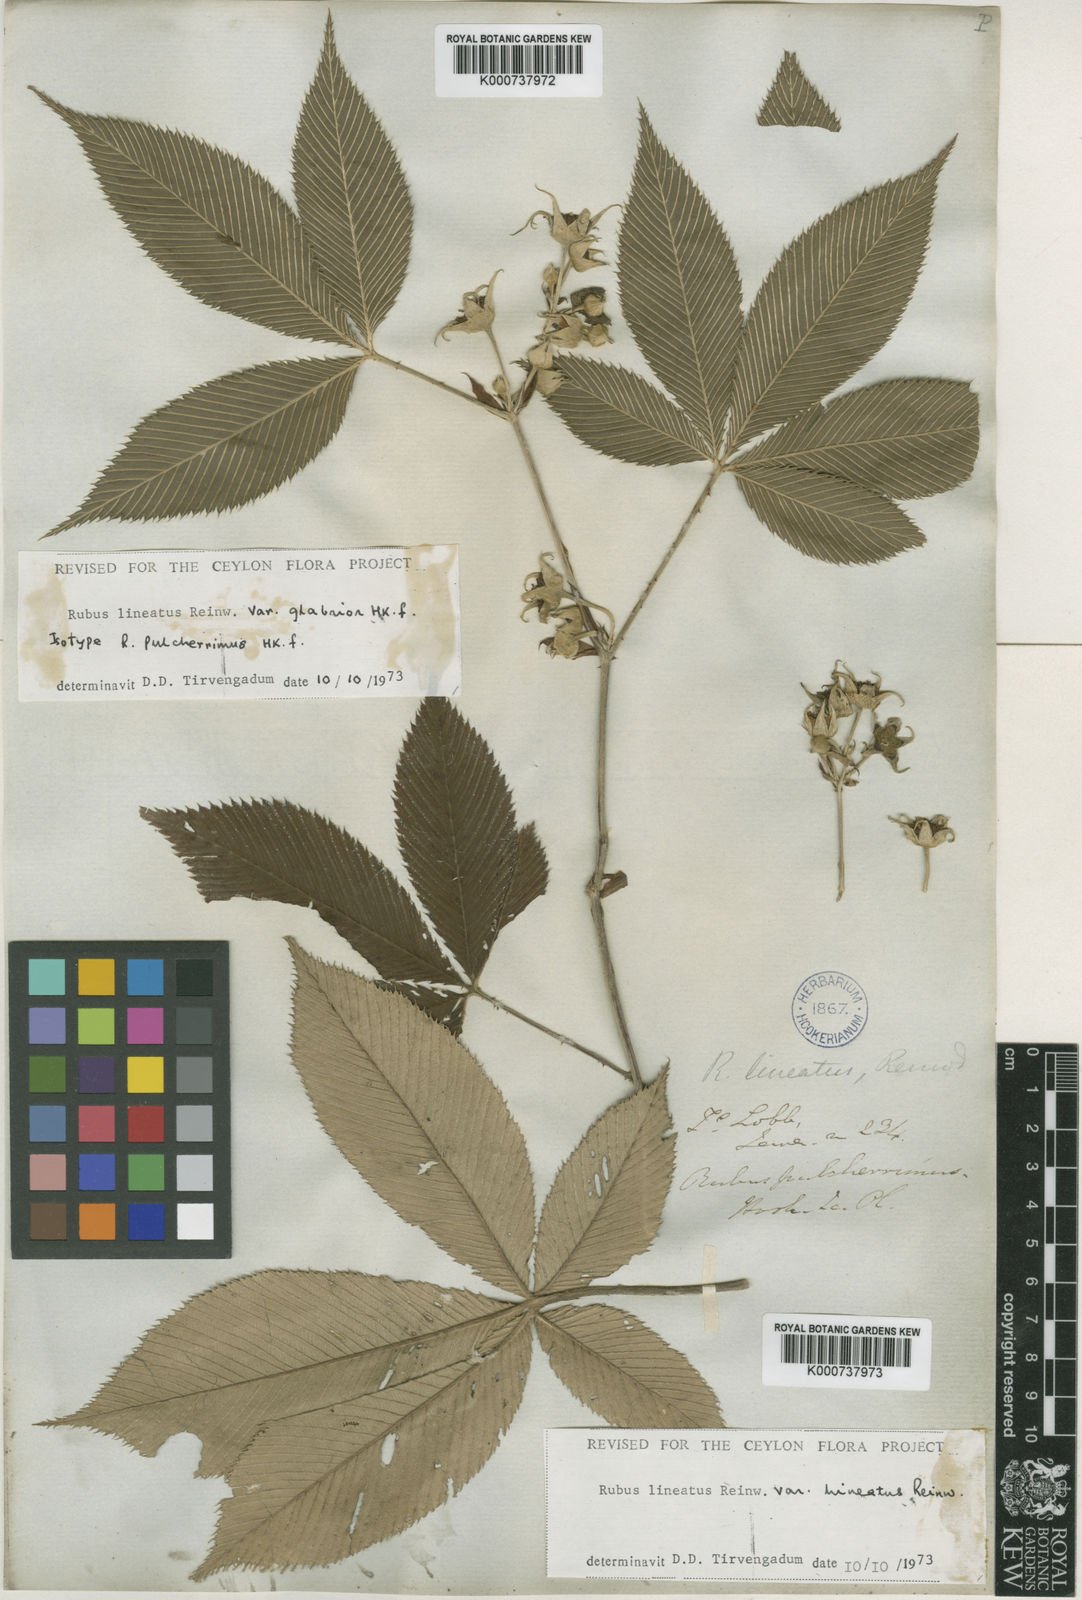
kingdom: Plantae
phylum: Tracheophyta
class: Magnoliopsida
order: Rosales
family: Rosaceae
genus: Rubus
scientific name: Rubus
